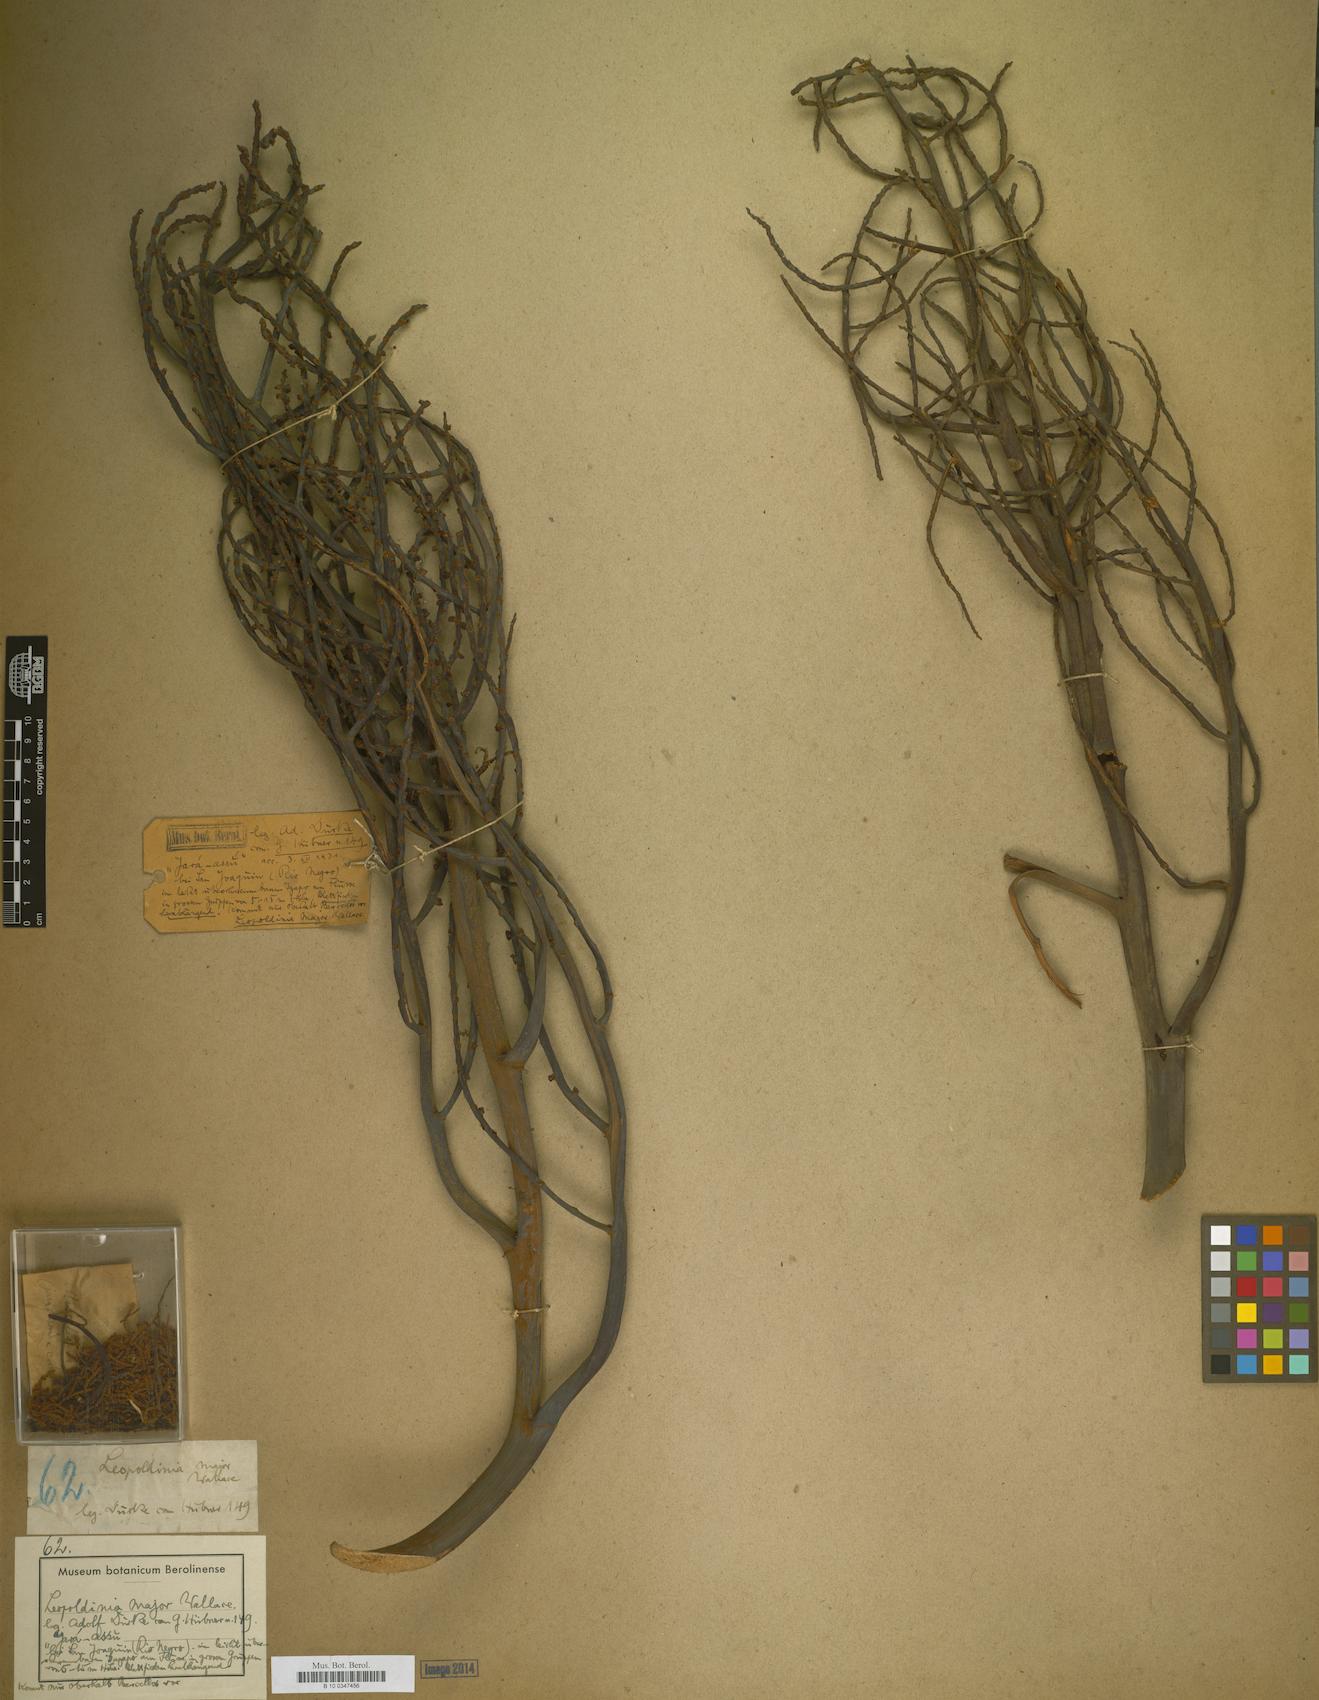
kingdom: Plantae
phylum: Tracheophyta
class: Liliopsida
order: Arecales
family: Arecaceae
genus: Leopoldinia
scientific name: Leopoldinia major
